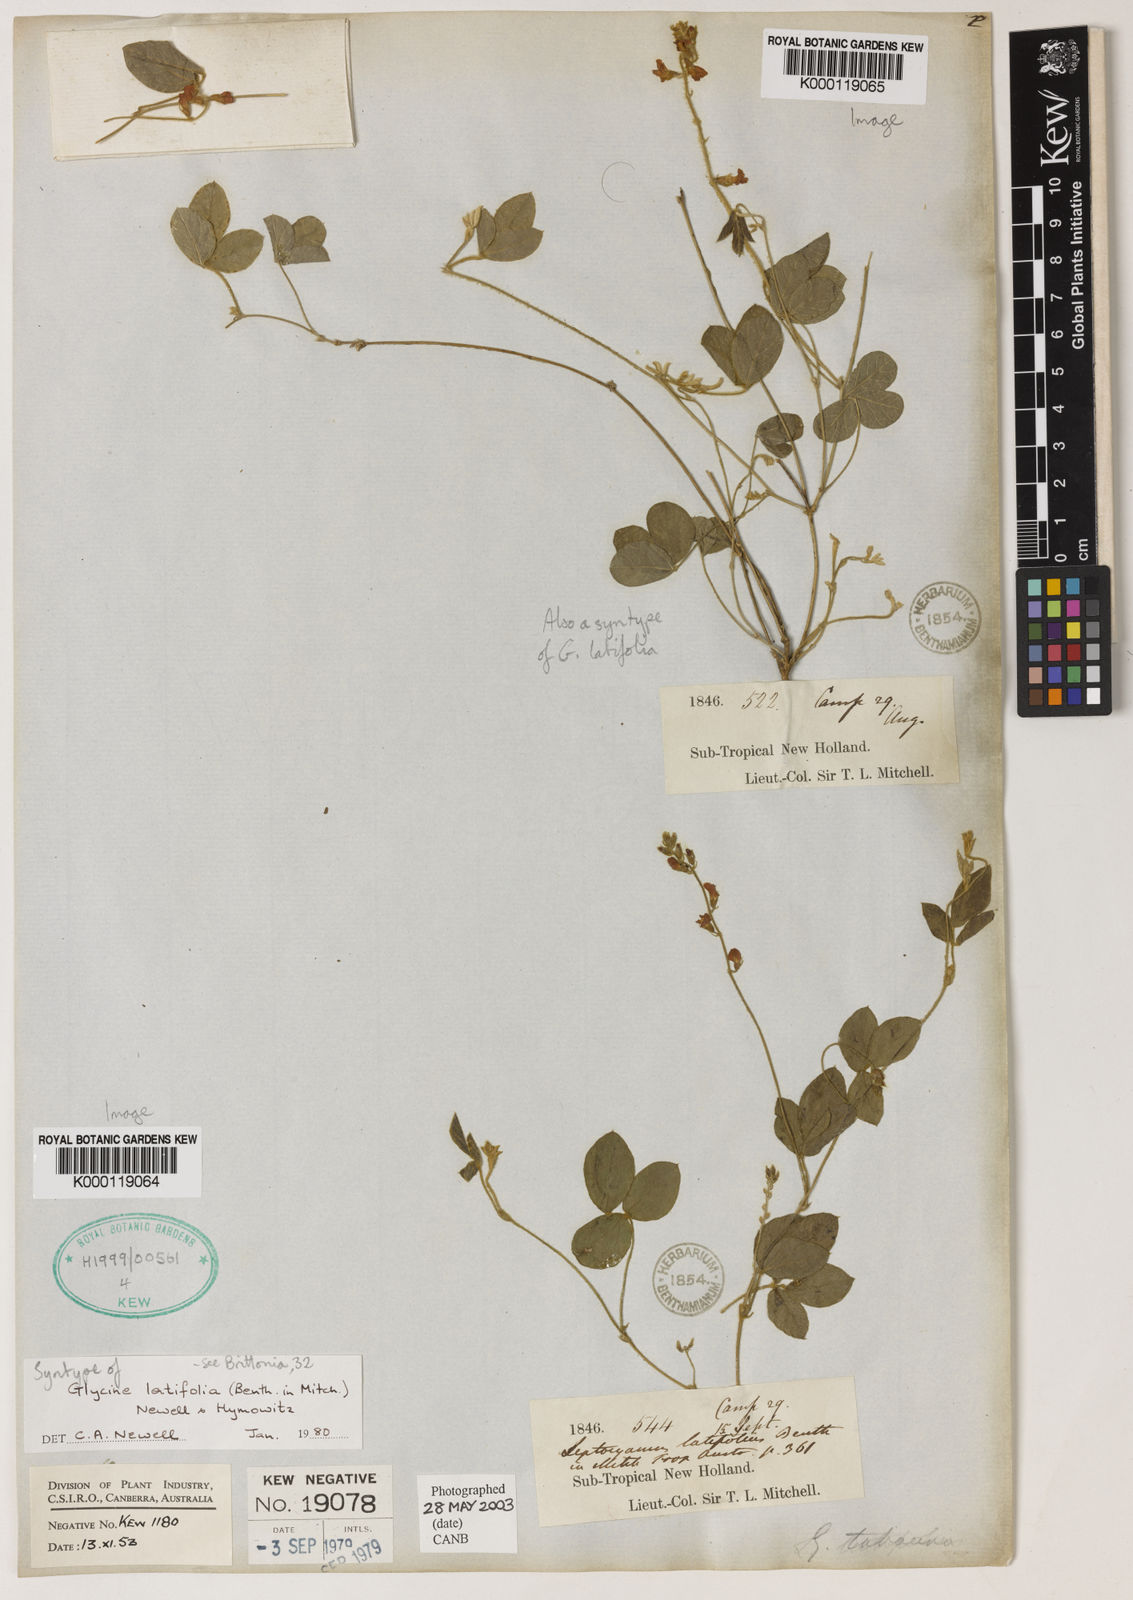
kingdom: Plantae
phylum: Tracheophyta
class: Magnoliopsida
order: Fabales
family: Fabaceae
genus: Glycine
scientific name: Glycine latifolia
